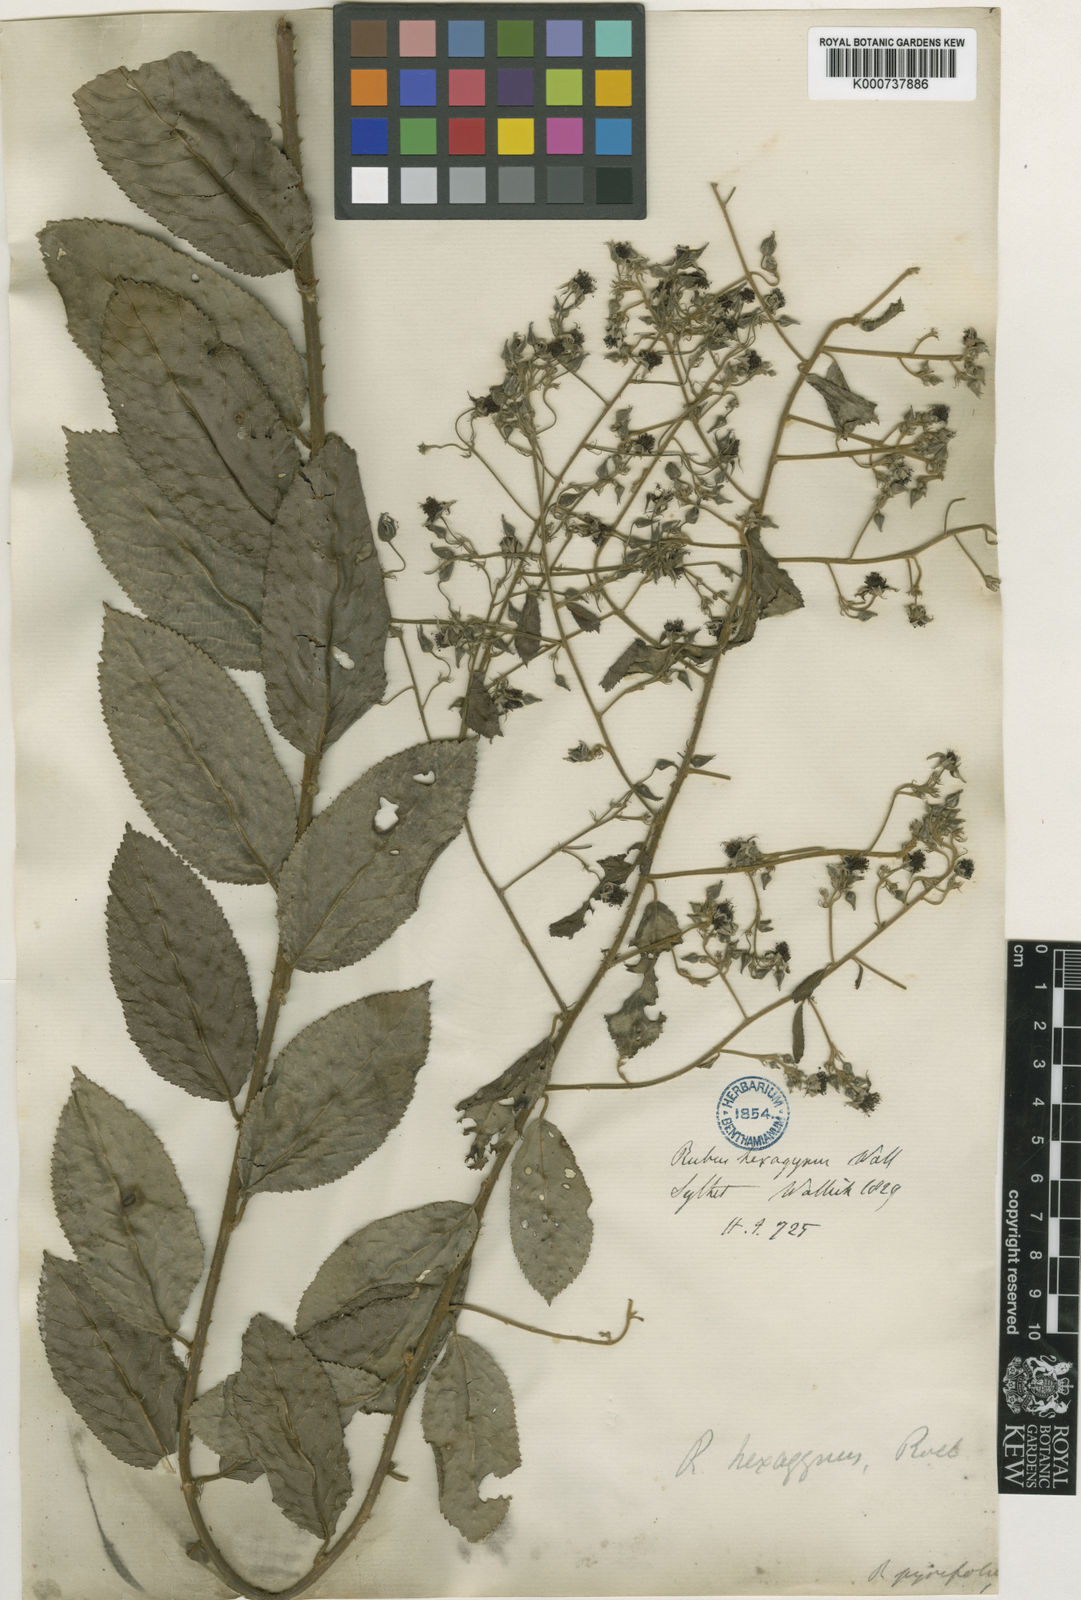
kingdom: Plantae
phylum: Tracheophyta
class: Magnoliopsida
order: Rosales
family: Rosaceae
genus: Rubus
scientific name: Rubus hexagynus
